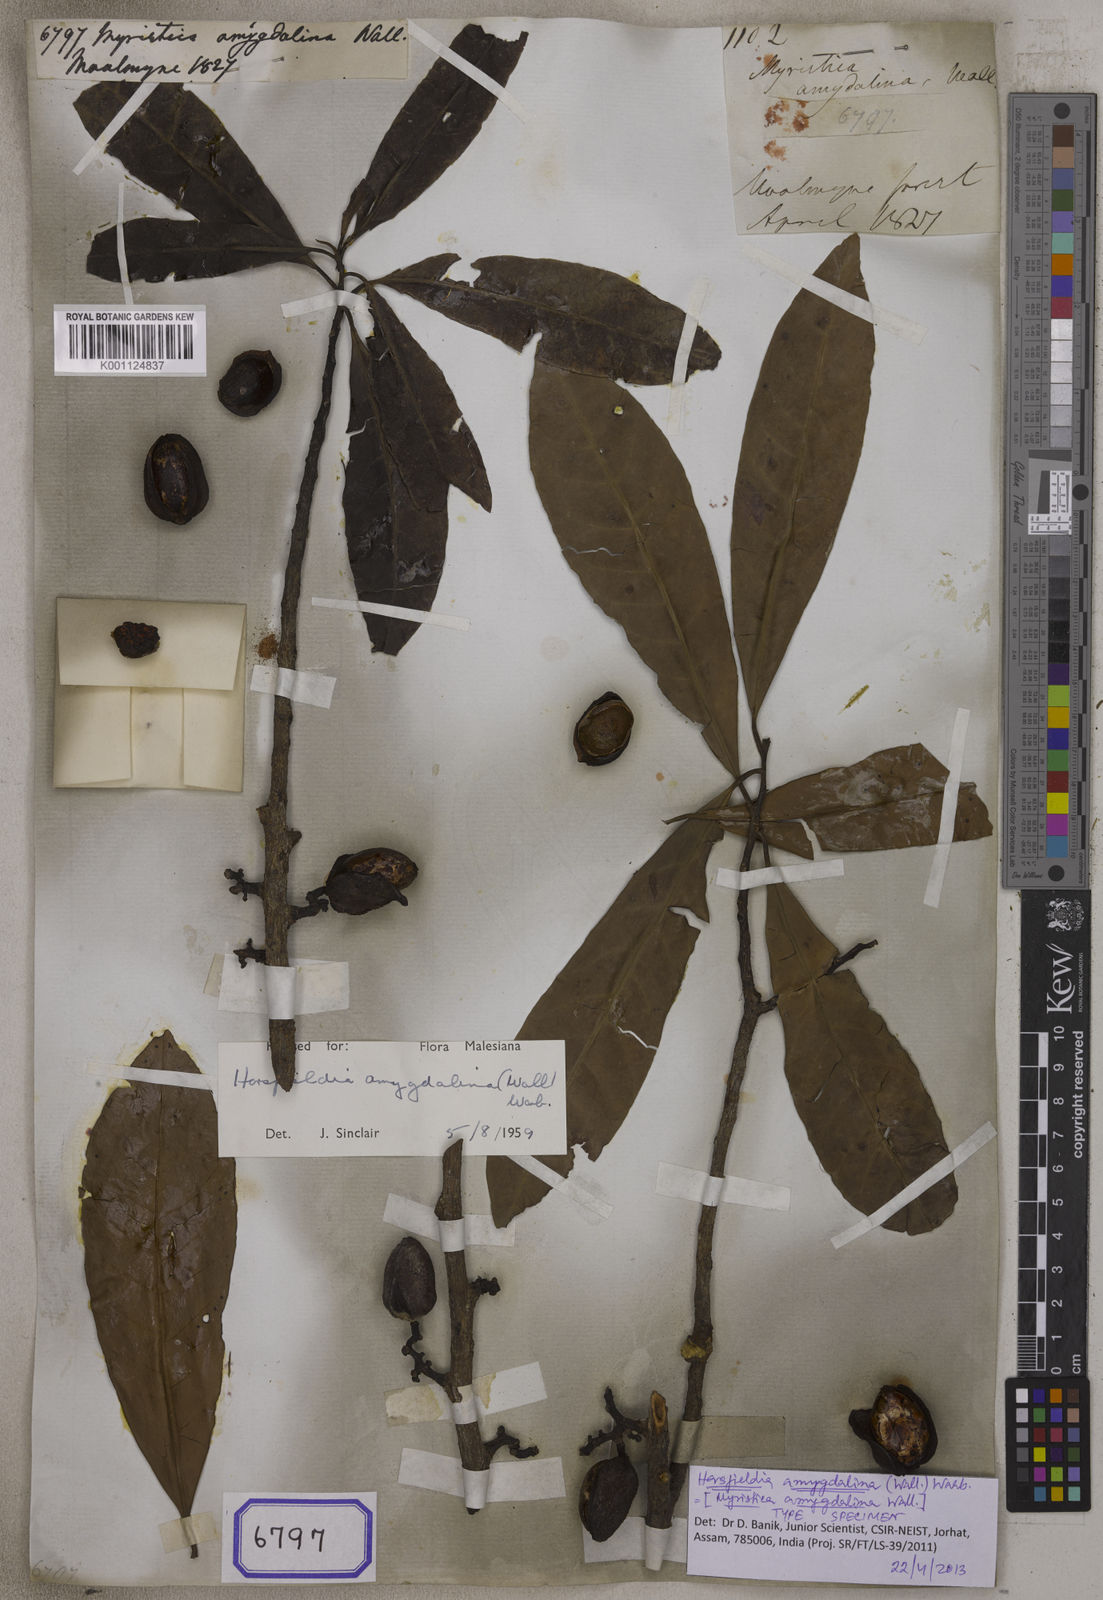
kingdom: Plantae
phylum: Tracheophyta
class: Magnoliopsida
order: Magnoliales
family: Myristicaceae
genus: Horsfieldia
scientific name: Horsfieldia amygdalina
